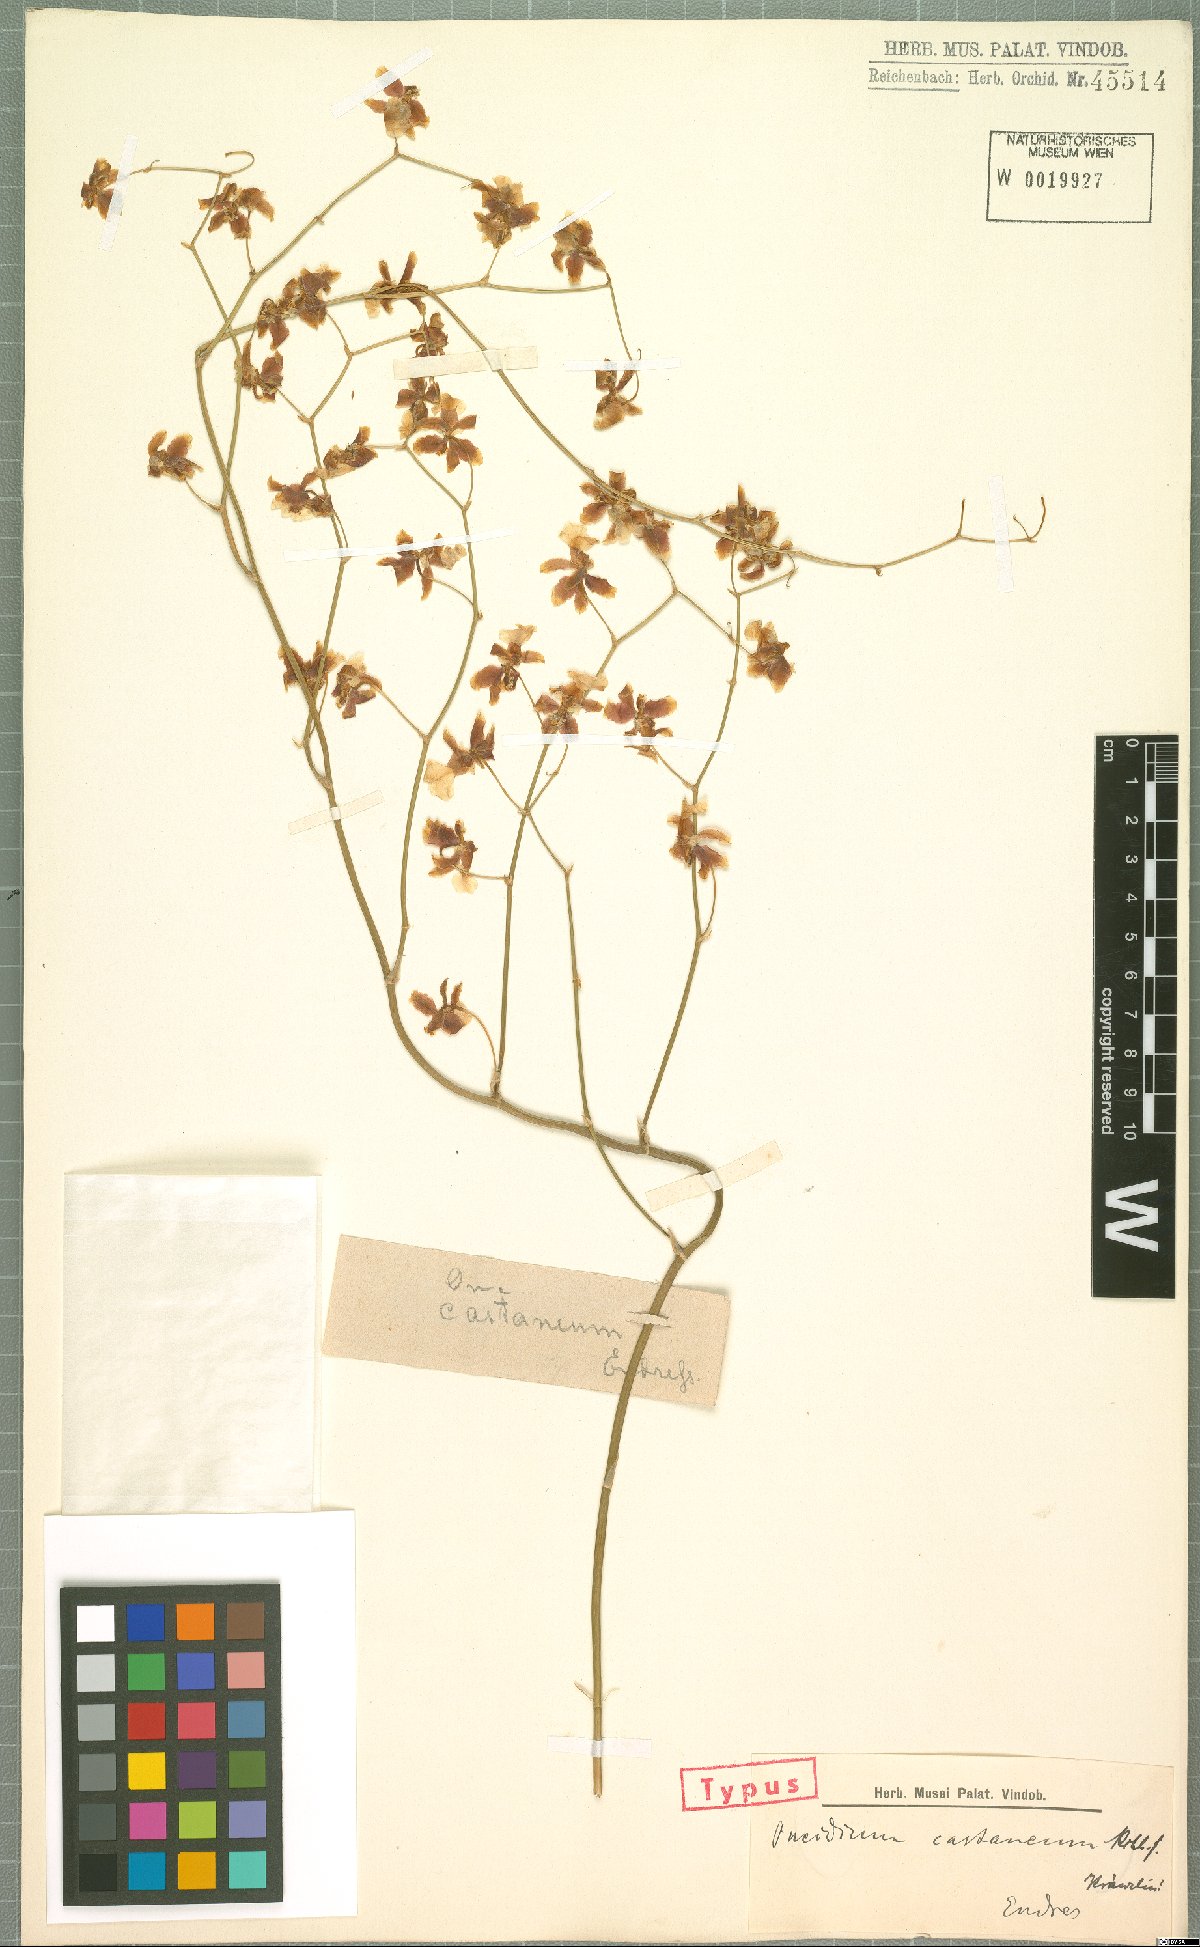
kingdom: Plantae
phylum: Tracheophyta
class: Liliopsida
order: Asparagales
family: Orchidaceae
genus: Oncidium
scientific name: Oncidium dichromaticum
